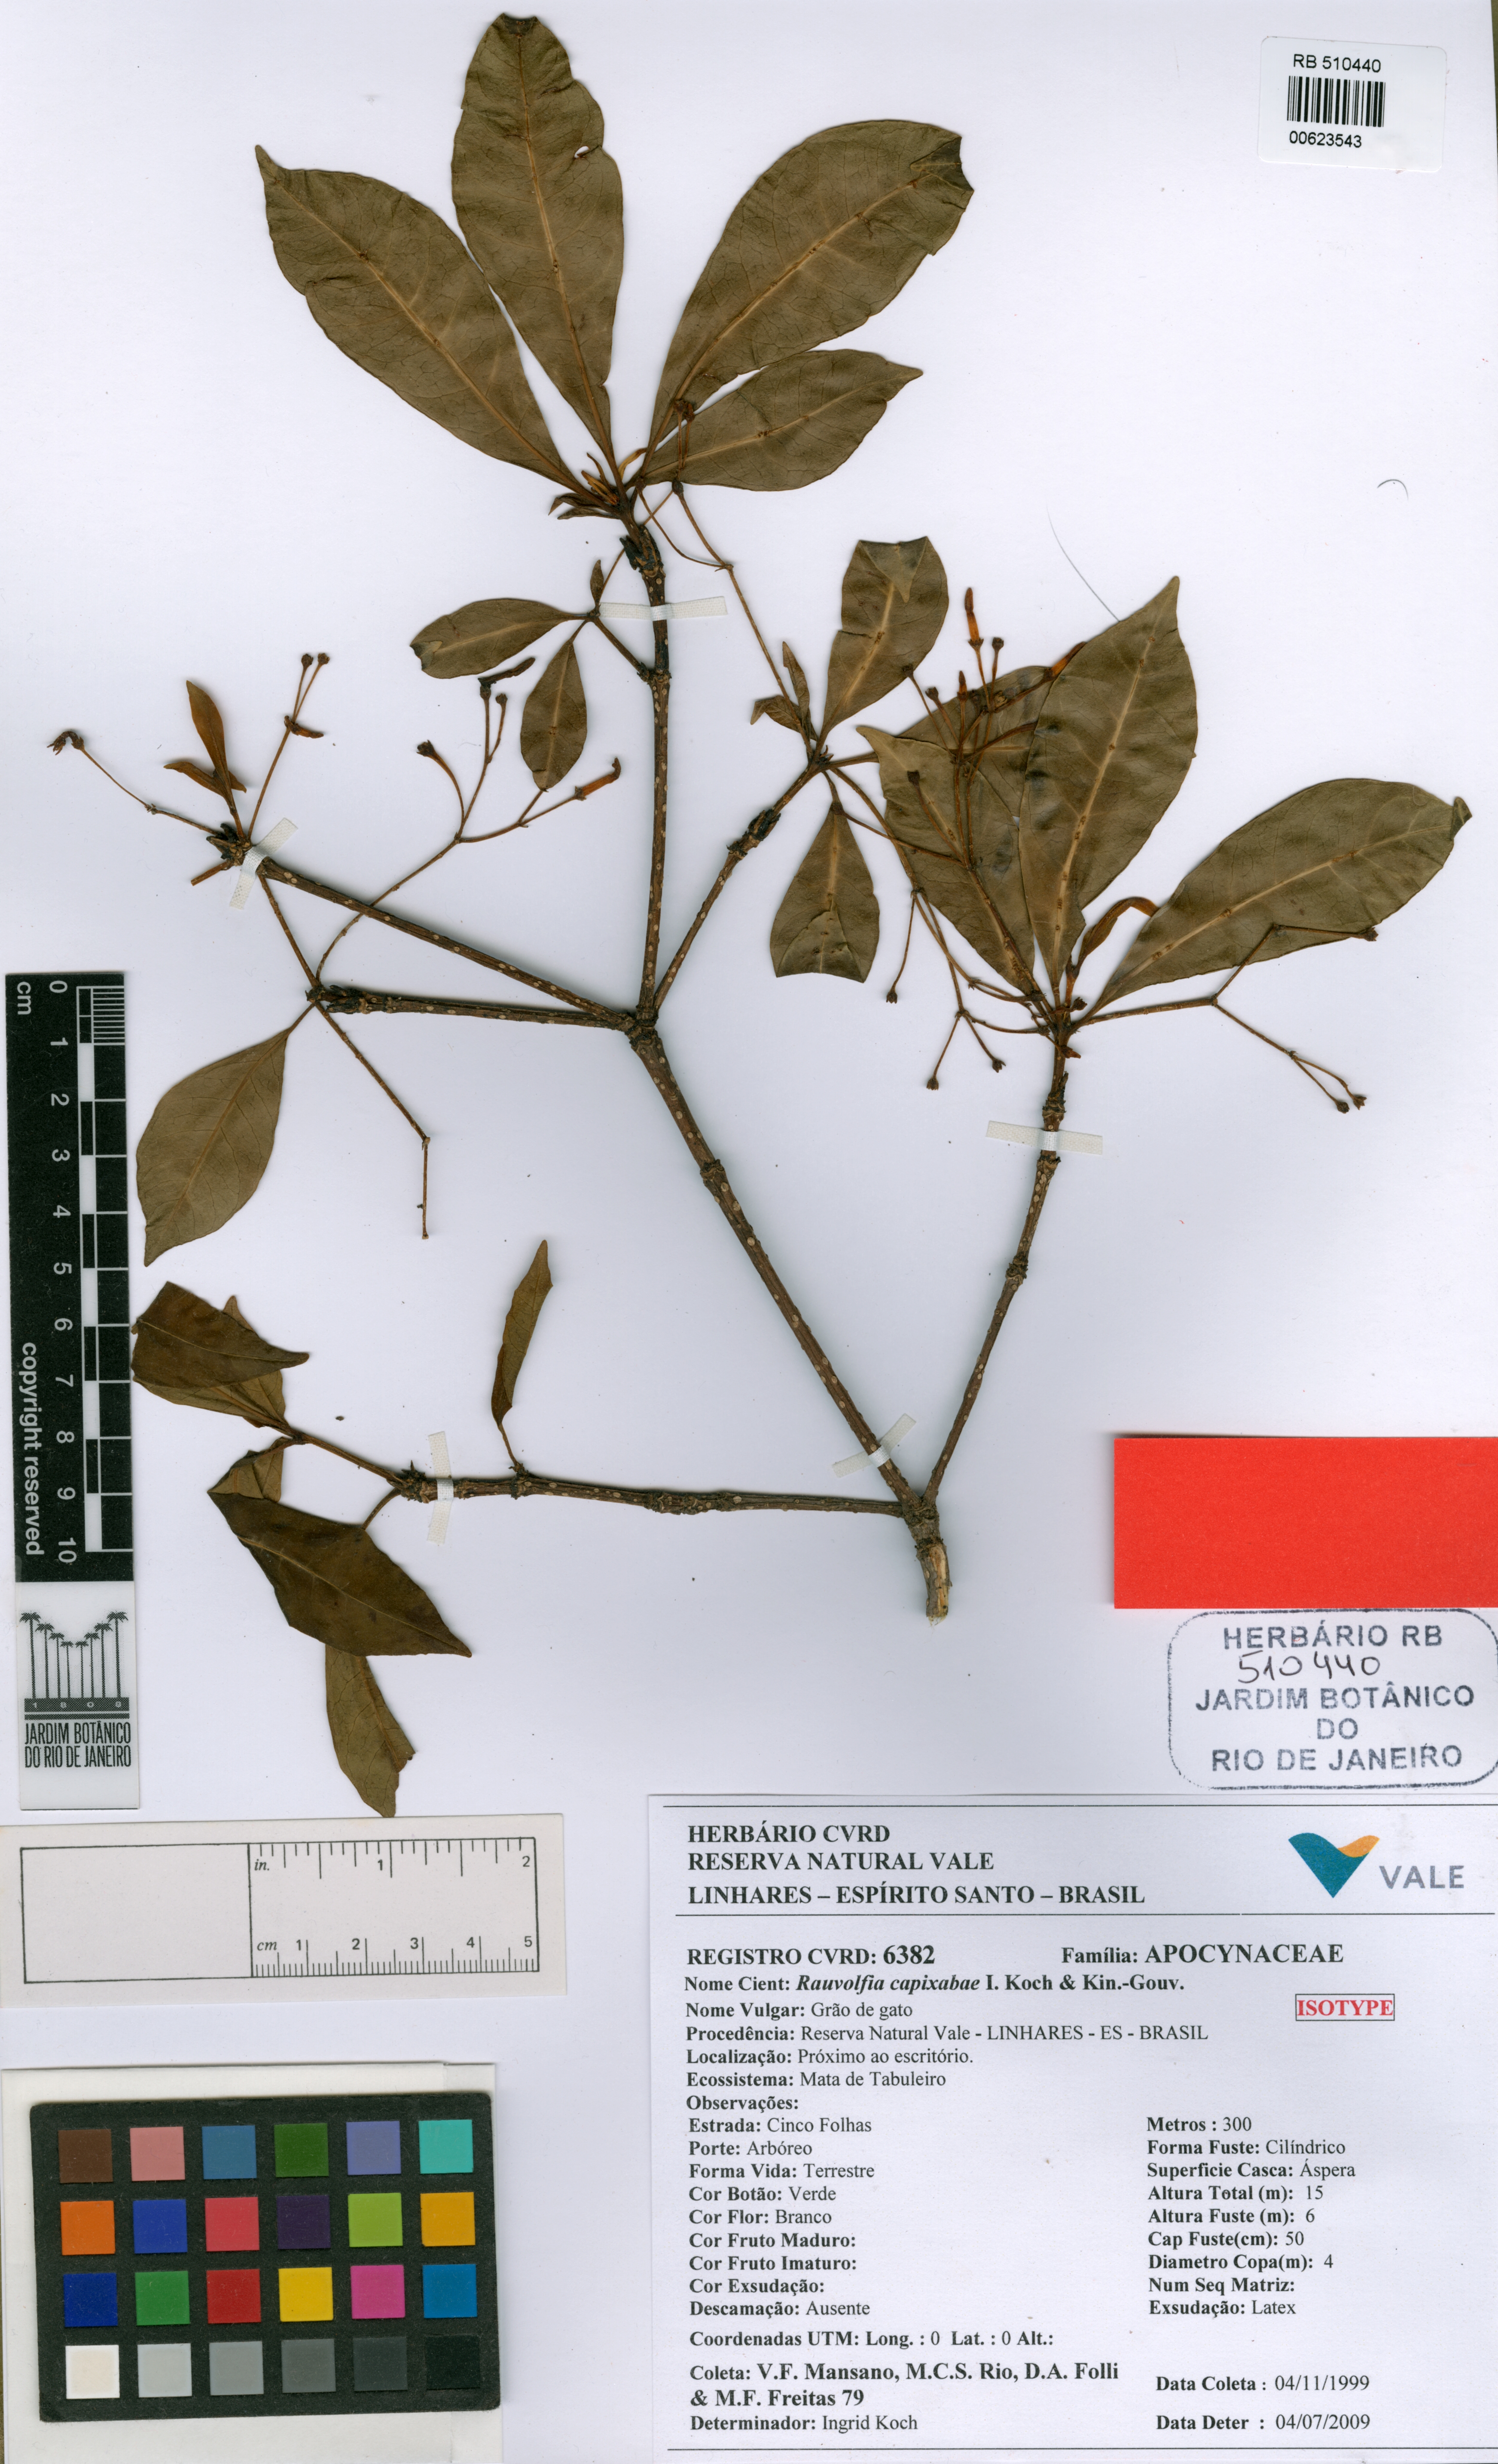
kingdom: Plantae
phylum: Tracheophyta
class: Magnoliopsida
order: Gentianales
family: Apocynaceae
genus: Rauvolfia
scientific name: Rauvolfia capixabae
